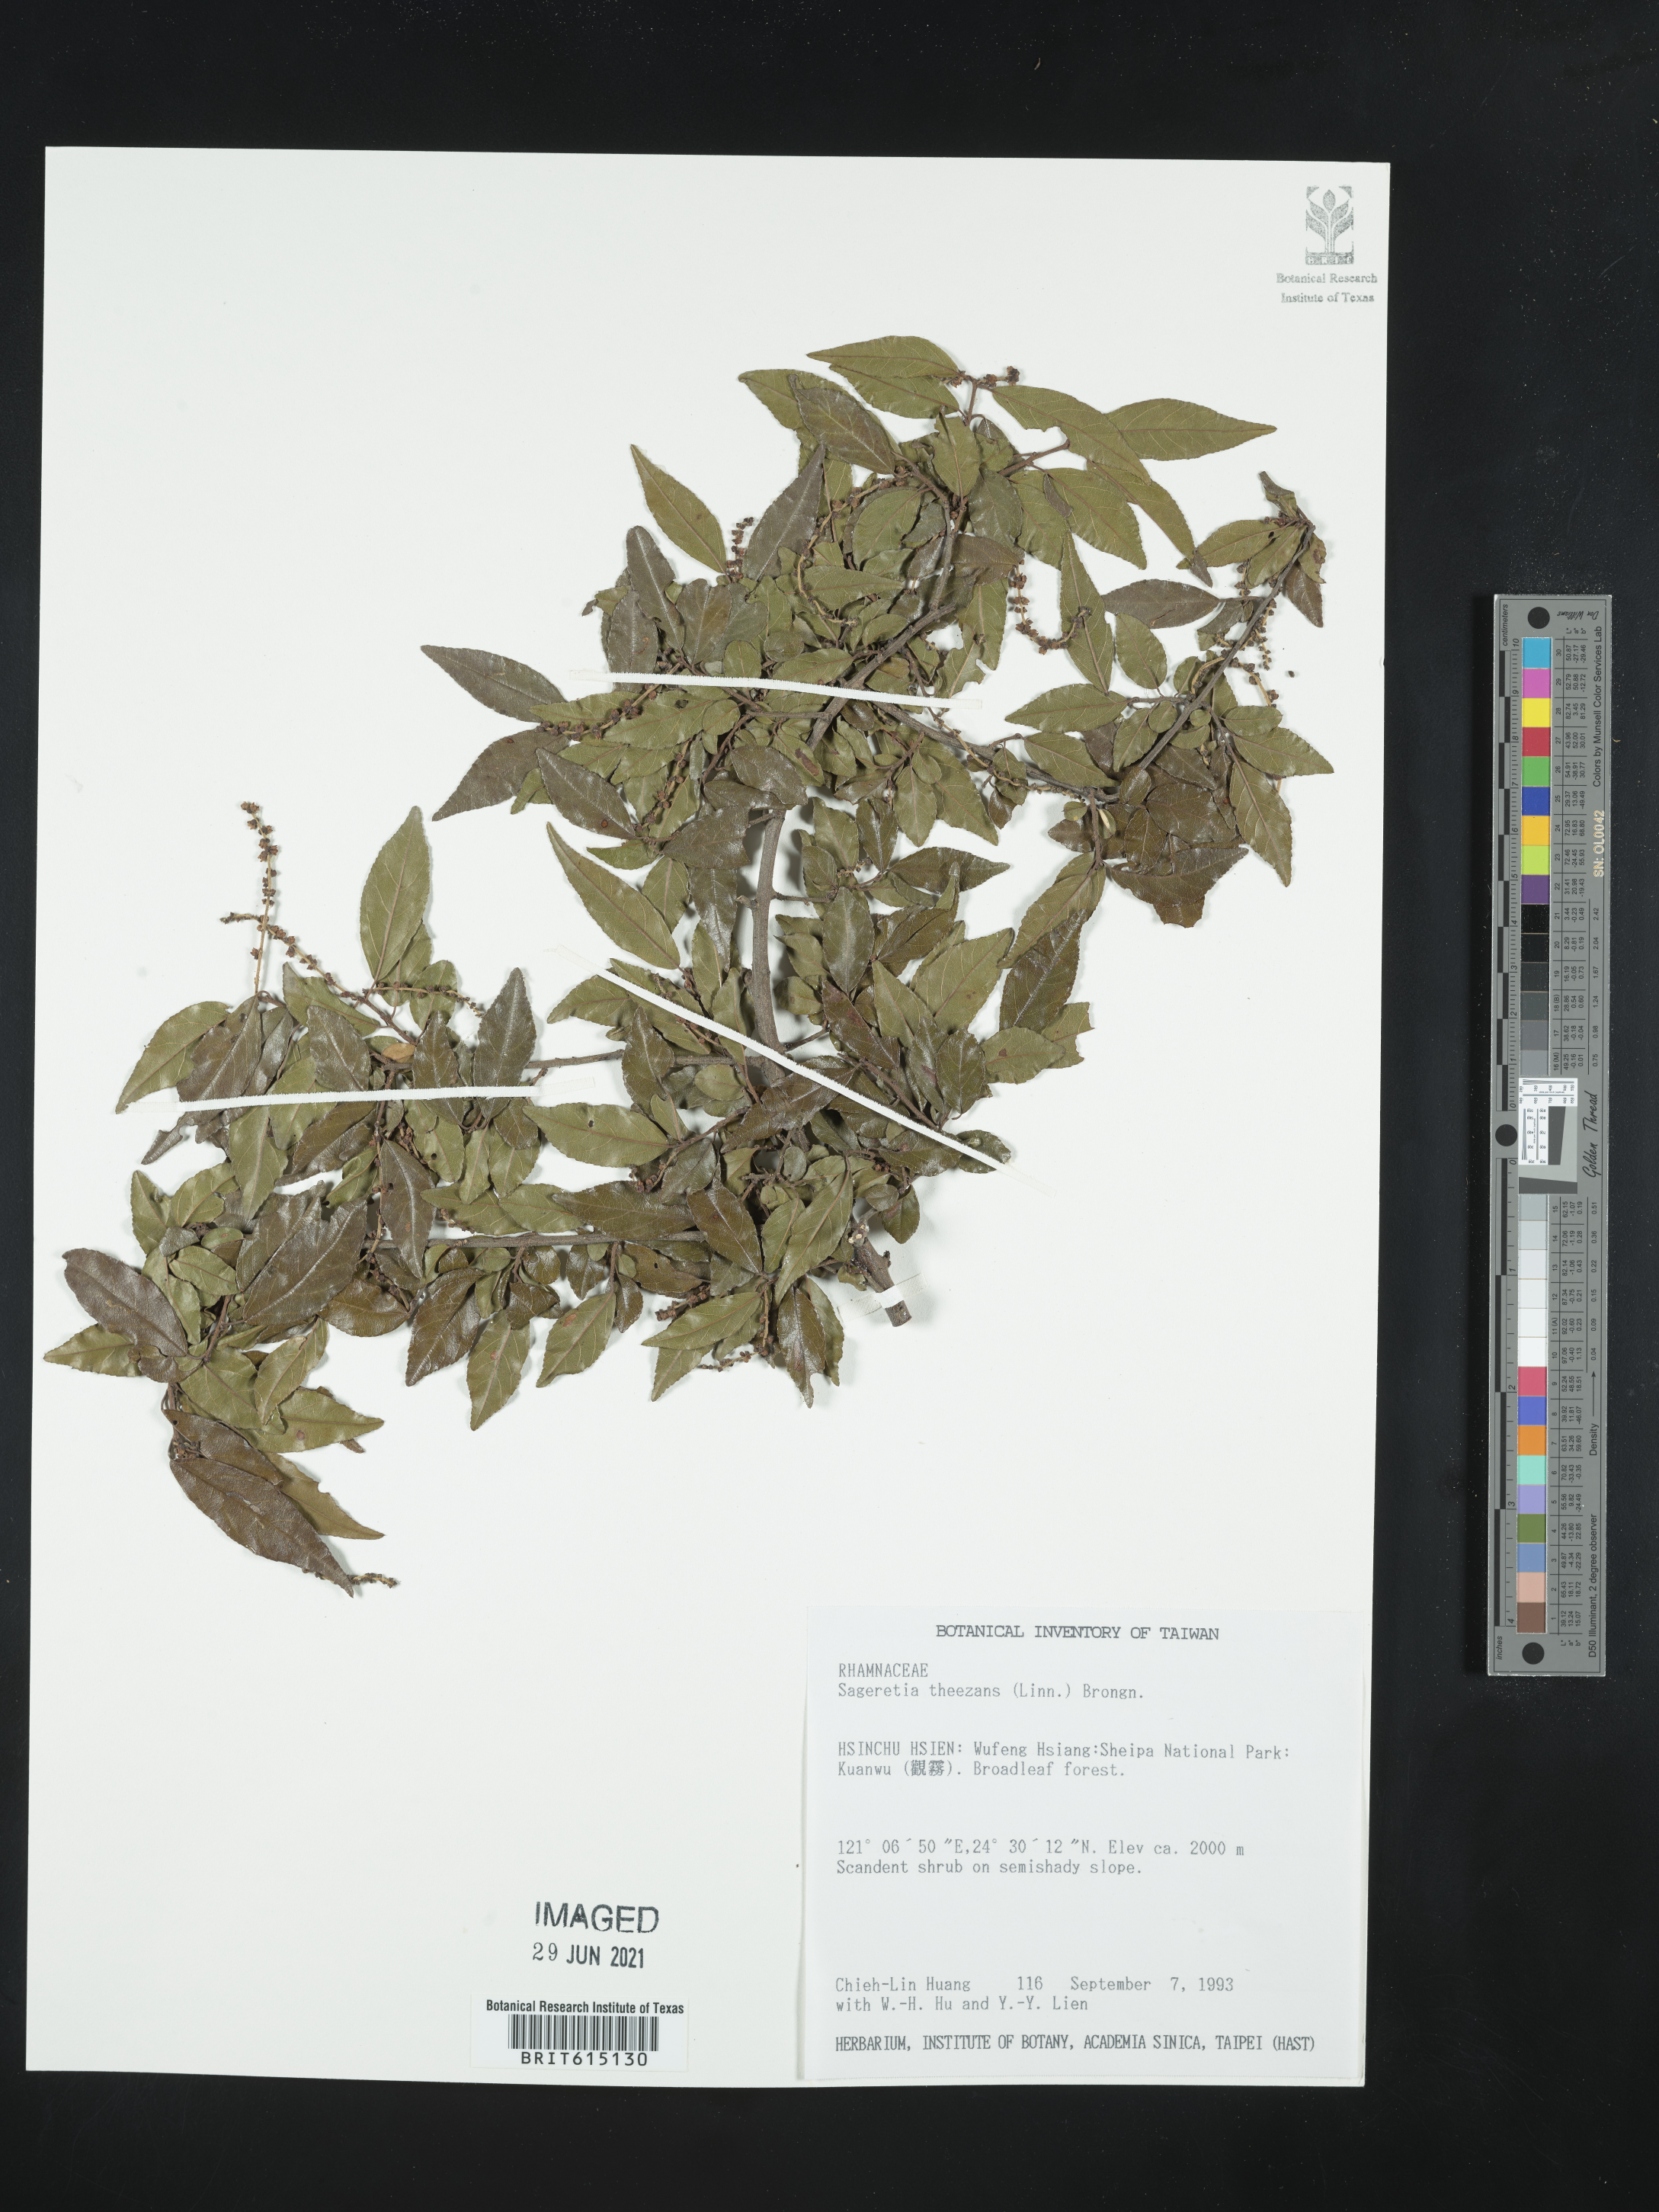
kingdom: Plantae
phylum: Tracheophyta
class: Magnoliopsida
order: Rosales
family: Rhamnaceae
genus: Sageretia
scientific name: Sageretia thea
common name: Pauper's-tea
